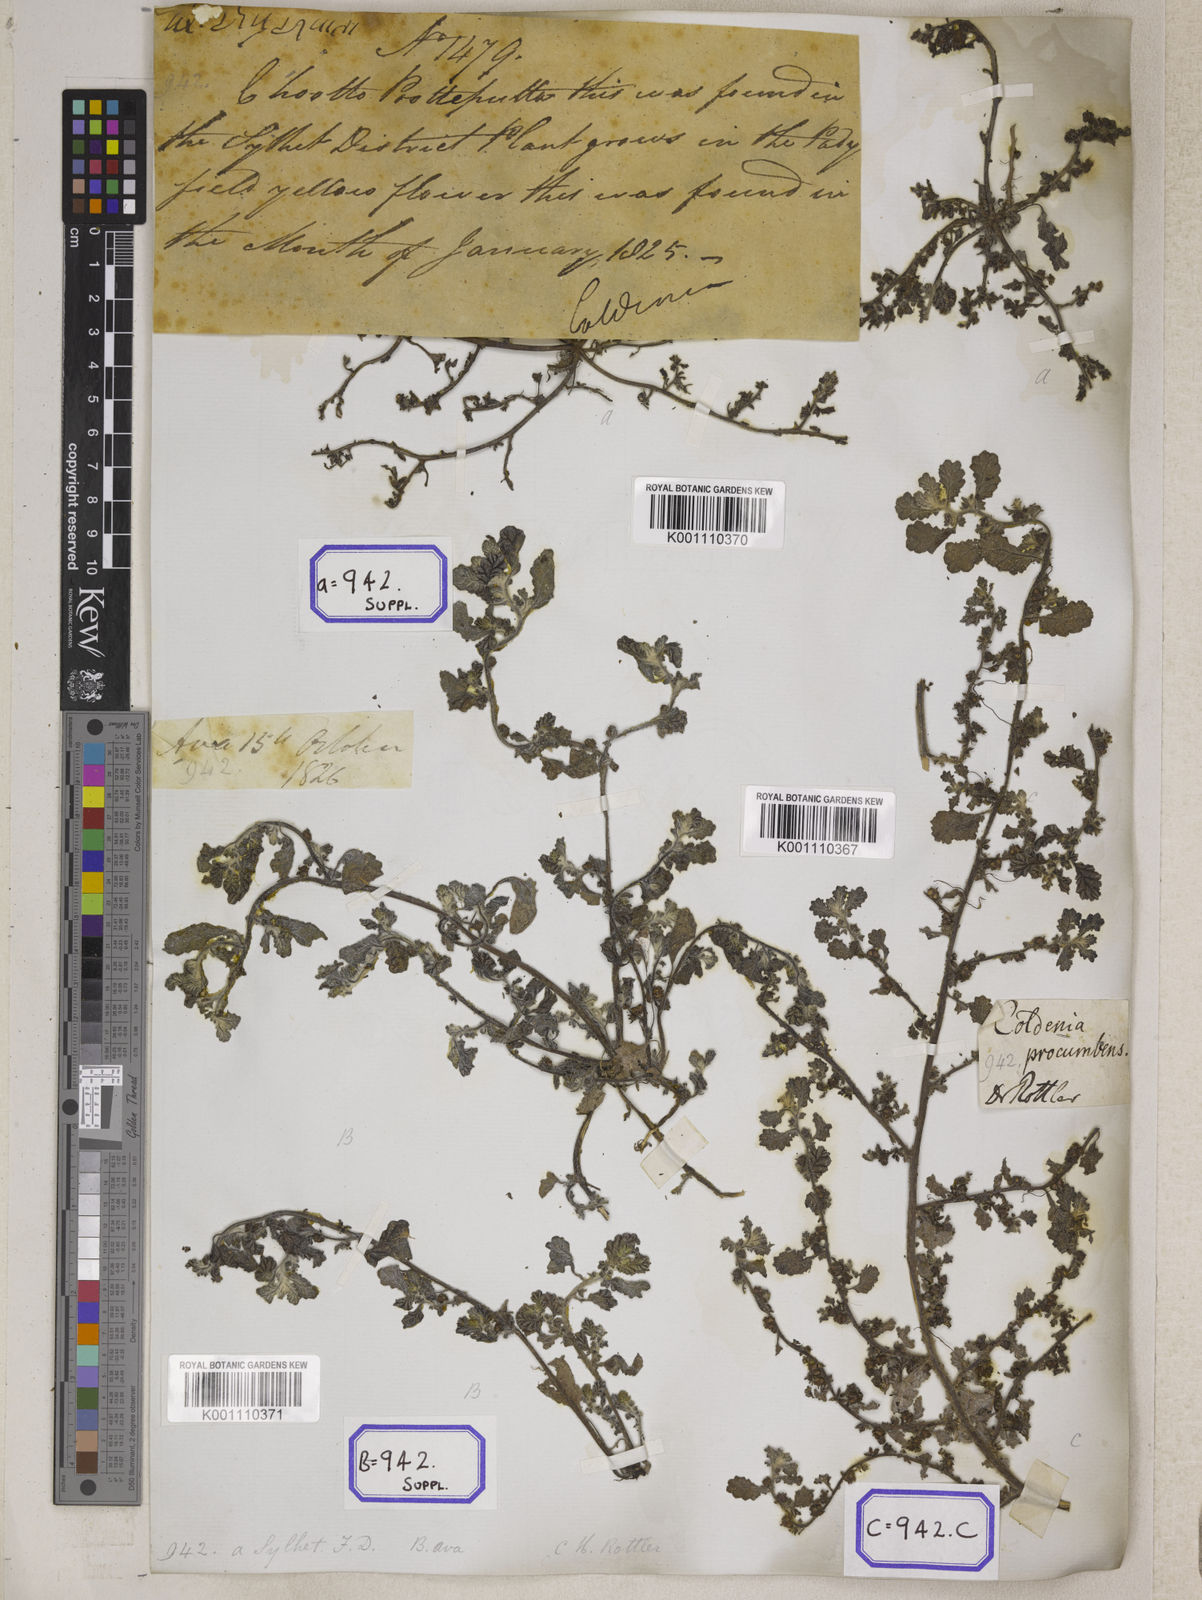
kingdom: Plantae
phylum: Tracheophyta
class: Magnoliopsida
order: Boraginales
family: Coldeniaceae
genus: Coldenia
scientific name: Coldenia procumbens
